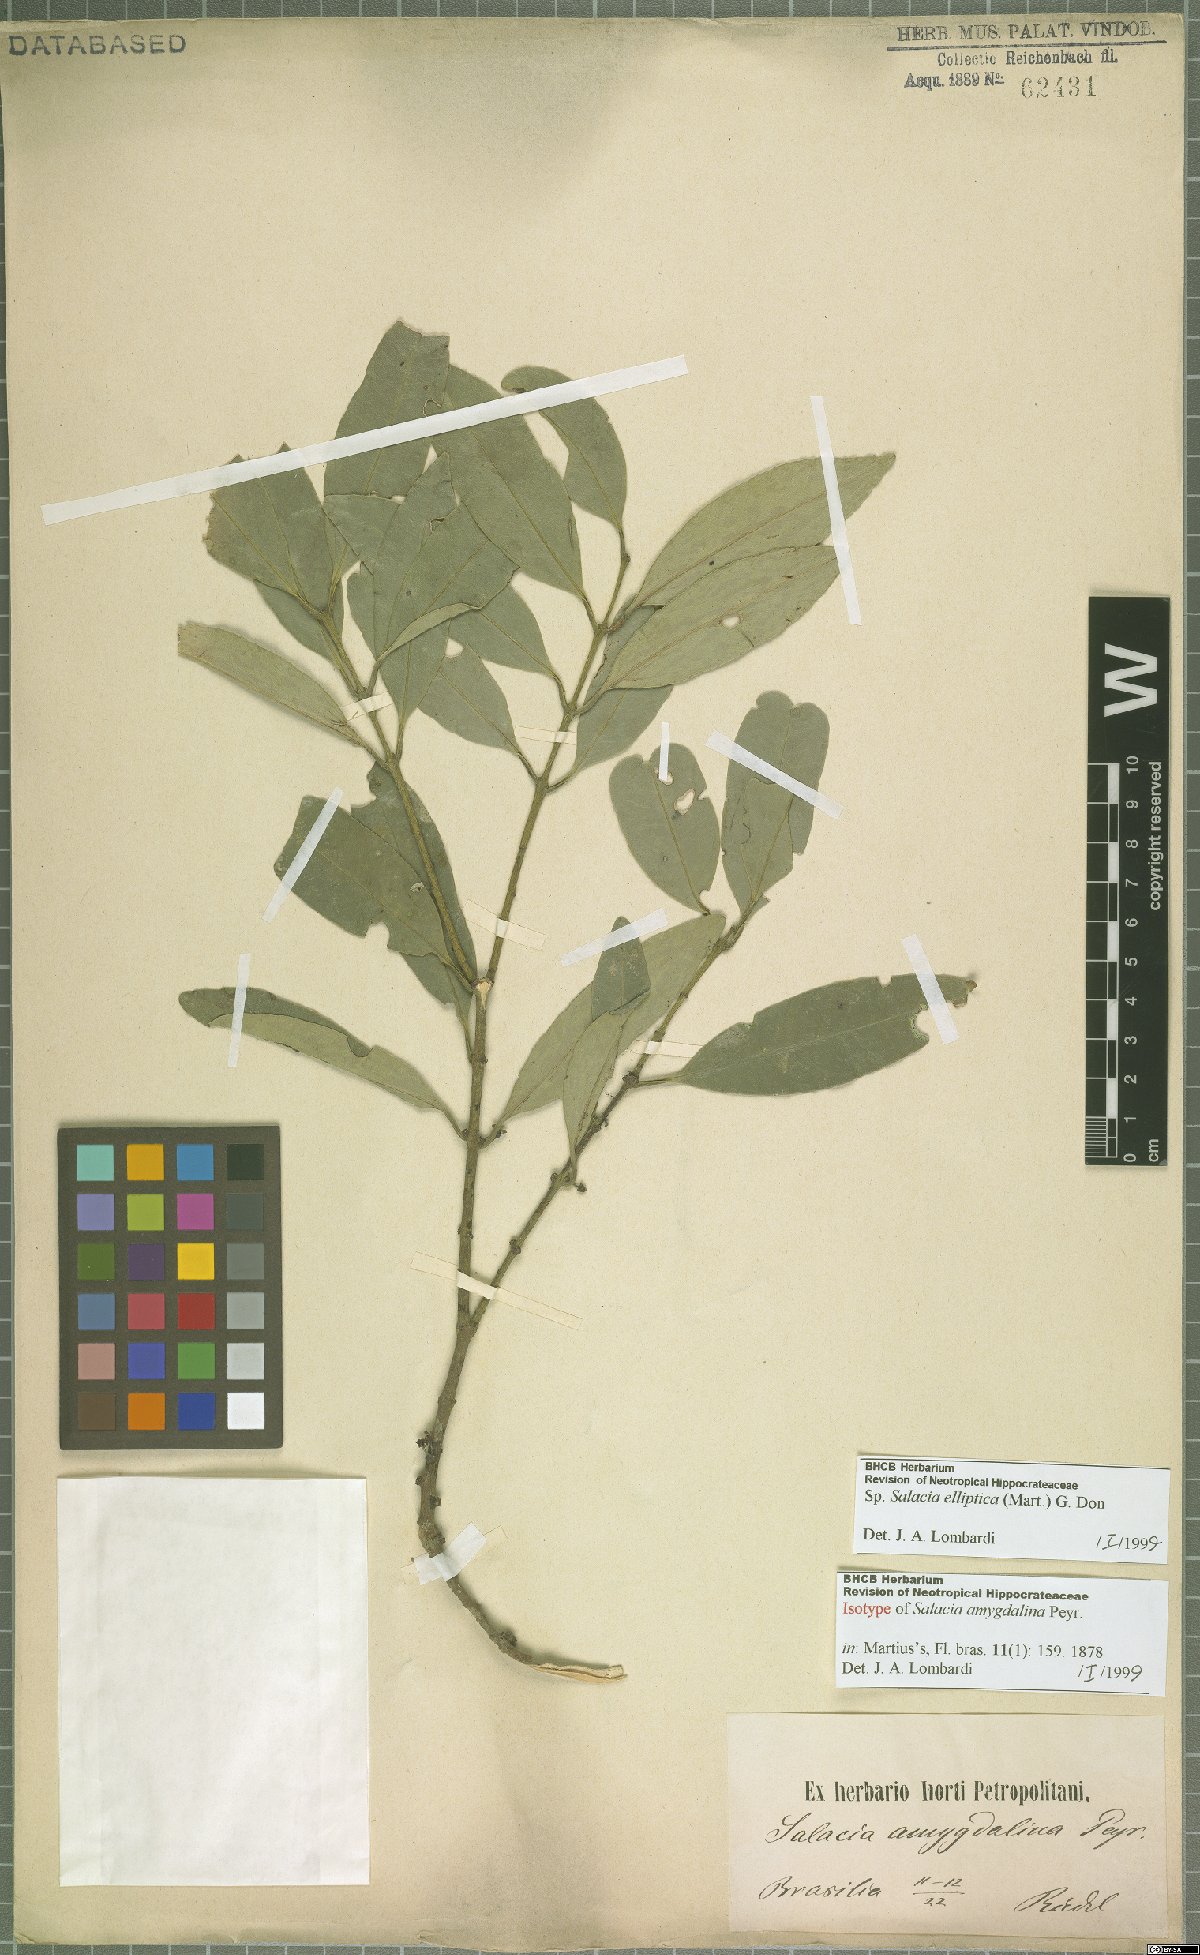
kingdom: Plantae
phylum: Tracheophyta
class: Magnoliopsida
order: Celastrales
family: Celastraceae
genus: Salacia
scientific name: Salacia elliptica
